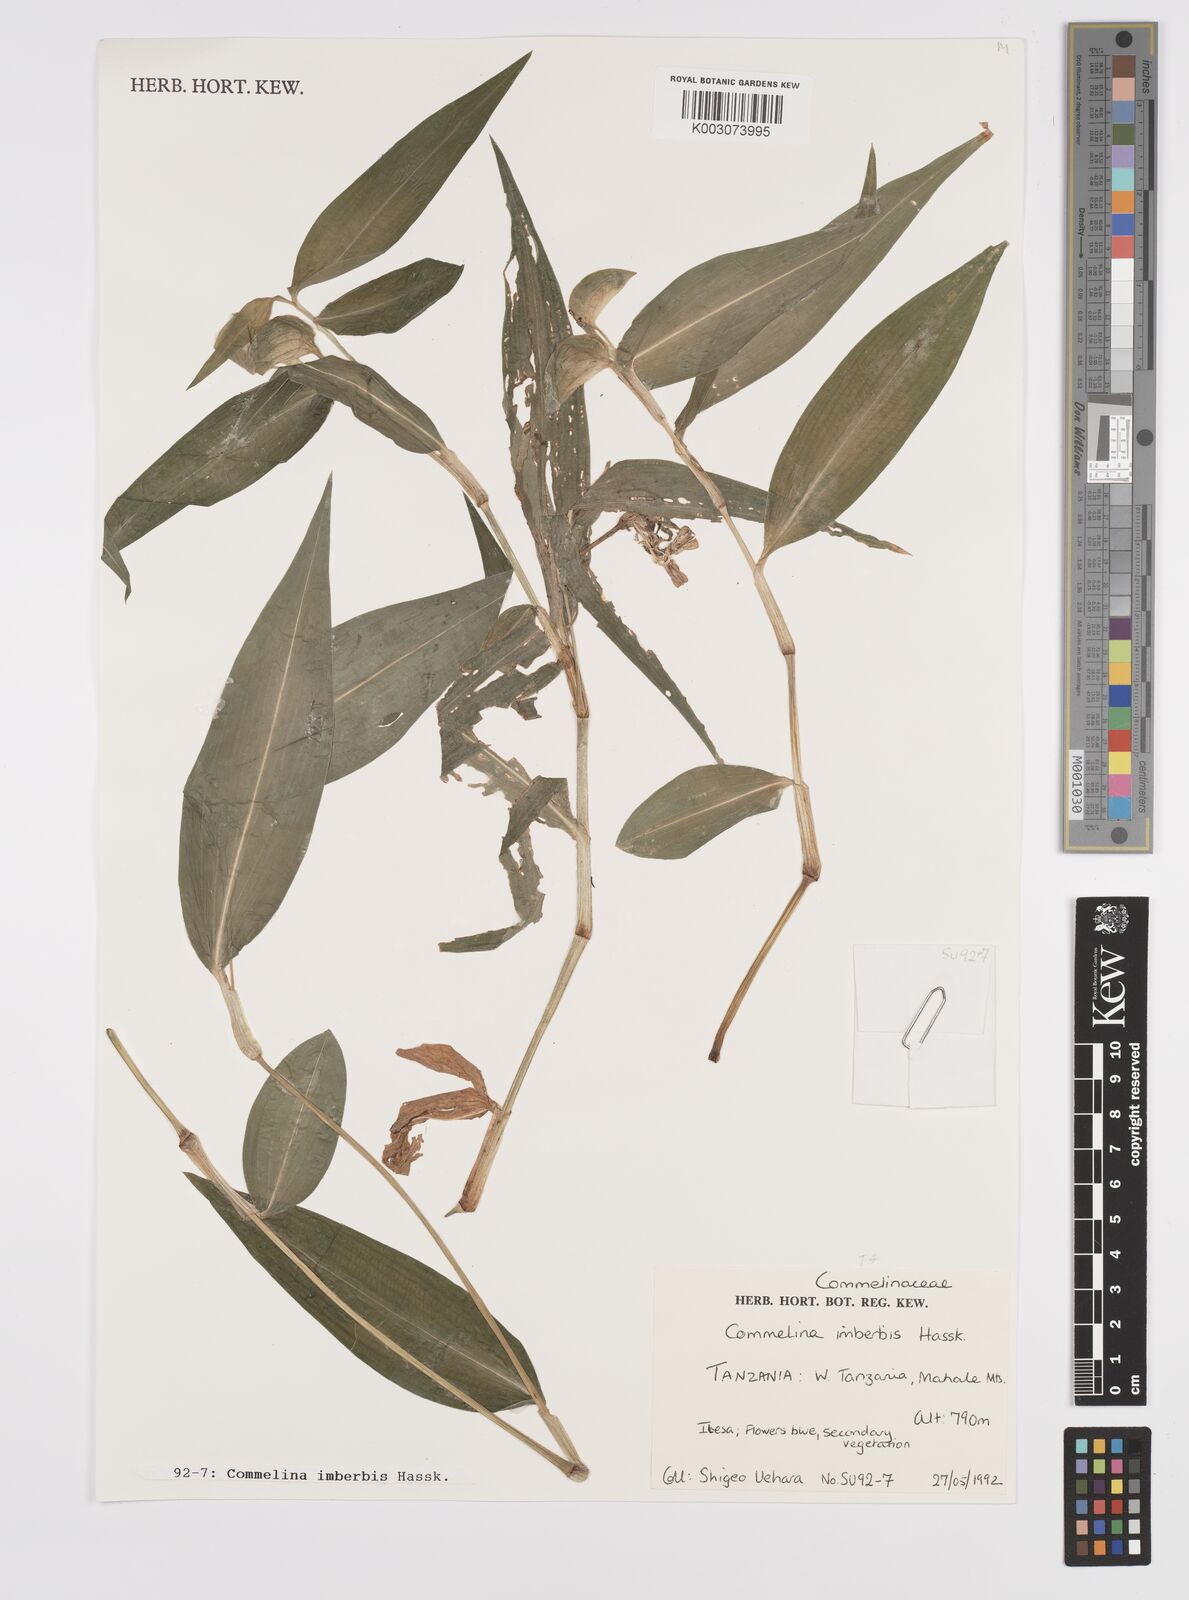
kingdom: Plantae
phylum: Tracheophyta
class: Liliopsida
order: Commelinales
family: Commelinaceae
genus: Commelina
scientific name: Commelina imberbis
